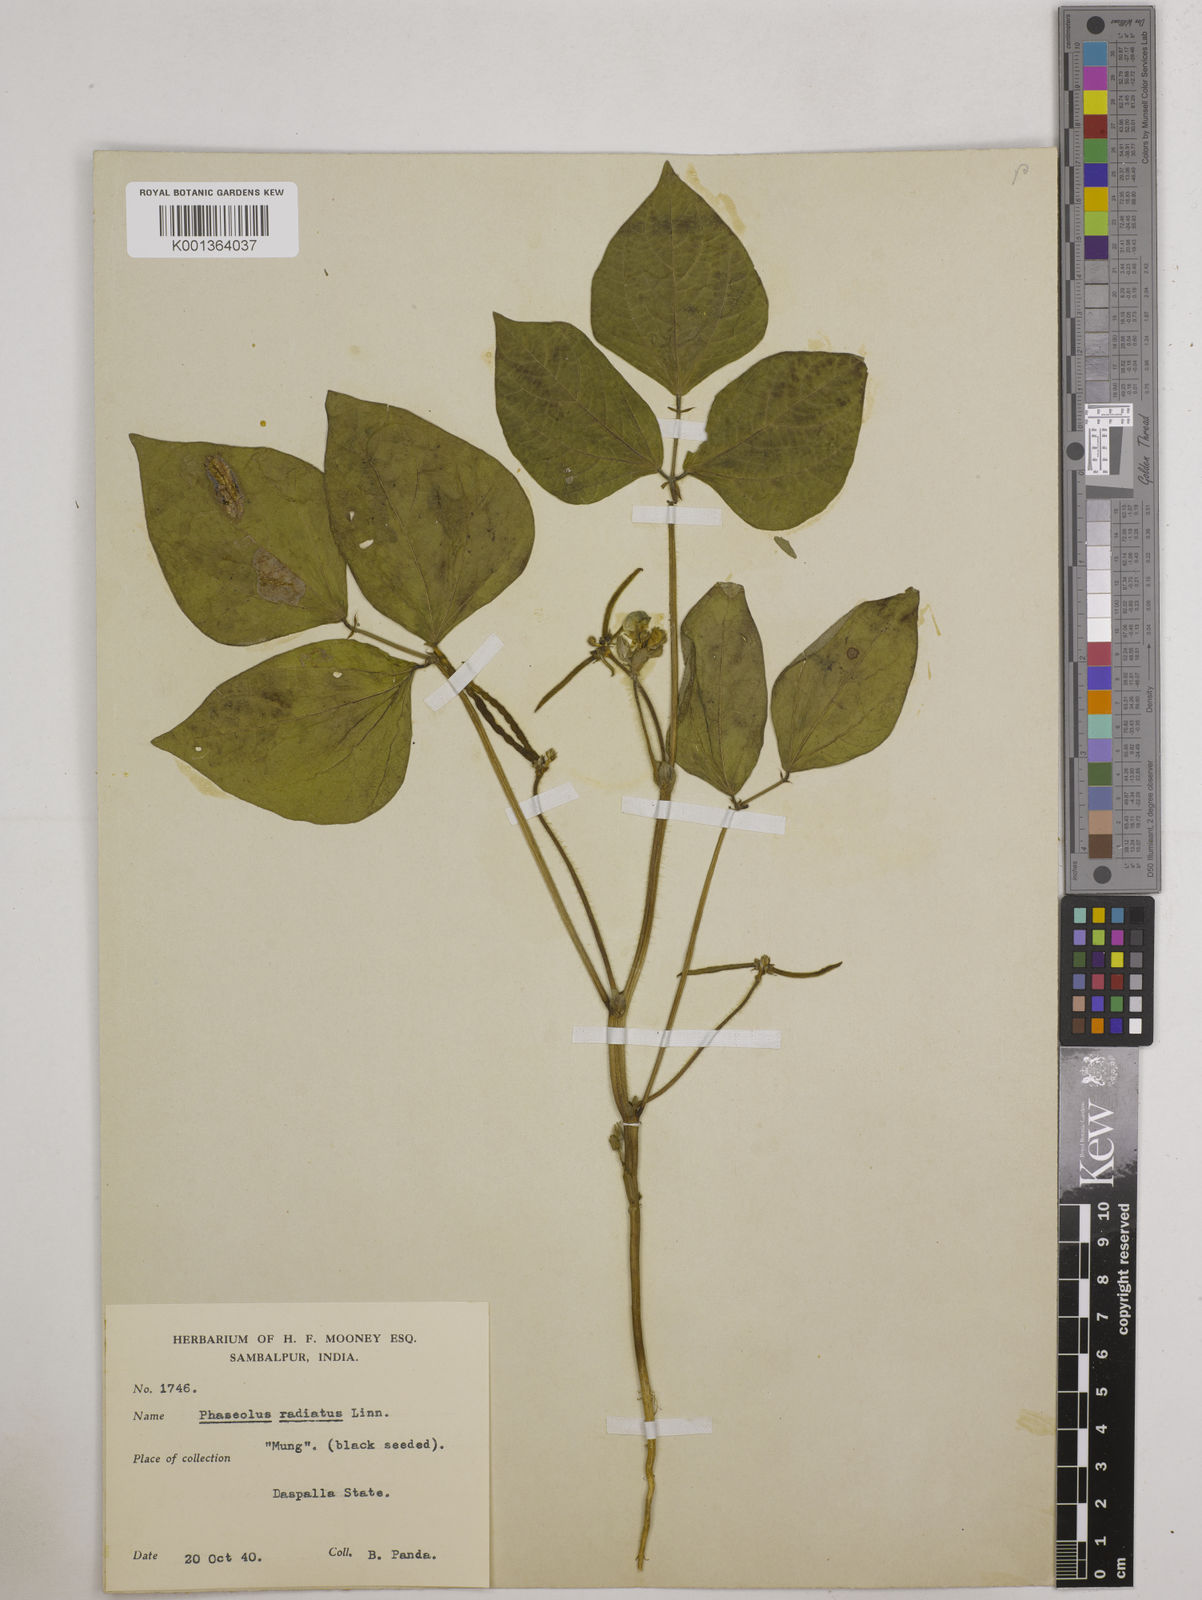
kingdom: Plantae
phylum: Tracheophyta
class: Magnoliopsida
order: Fabales
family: Fabaceae
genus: Vigna
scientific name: Vigna radiata
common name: Mung-bean
